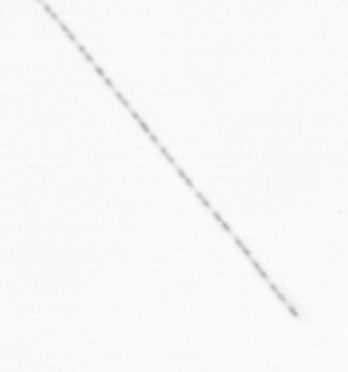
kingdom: Chromista
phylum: Ochrophyta
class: Bacillariophyceae
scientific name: Bacillariophyceae
